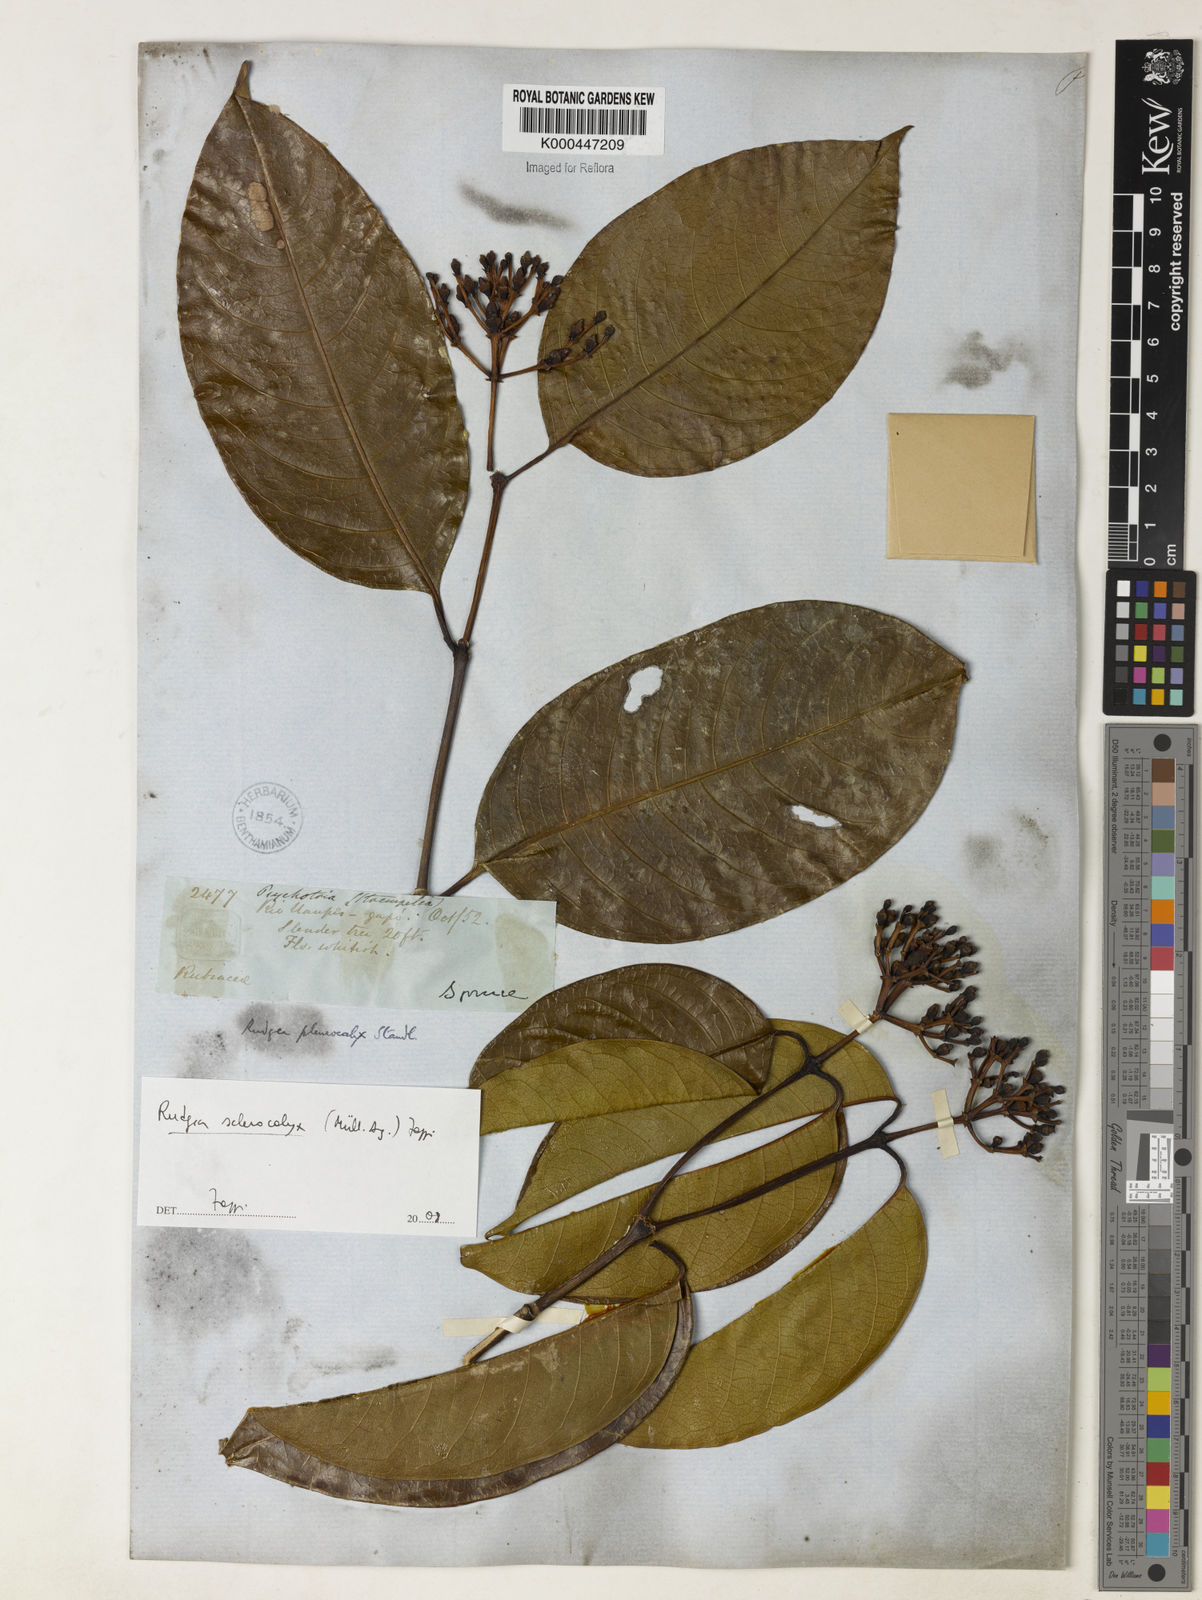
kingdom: Plantae
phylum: Tracheophyta
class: Magnoliopsida
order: Gentianales
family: Rubiaceae
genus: Rudgea
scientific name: Rudgea sclerocalyx
